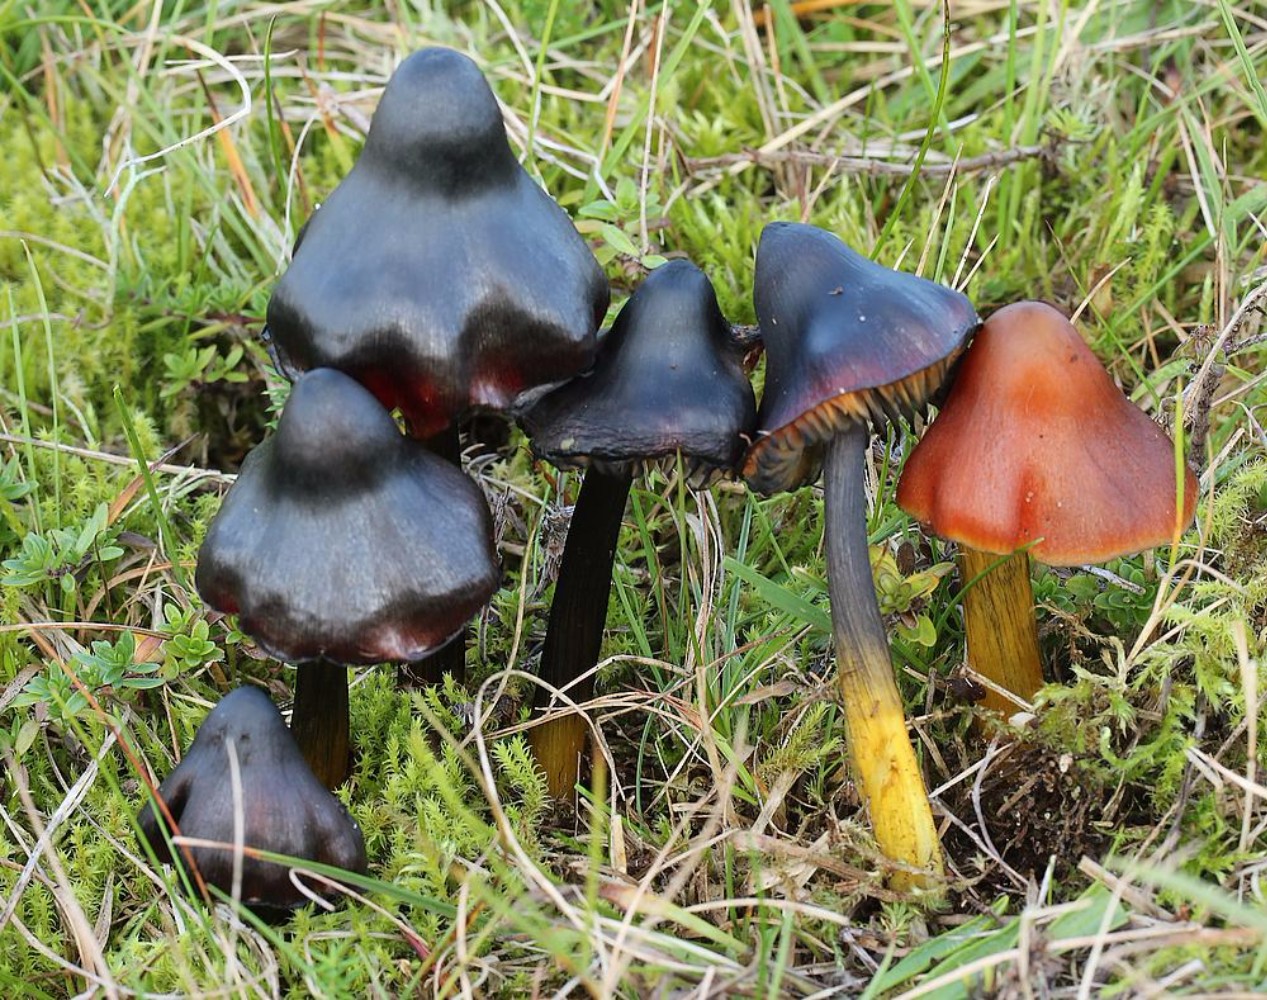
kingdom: Fungi
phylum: Basidiomycota
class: Agaricomycetes
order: Agaricales
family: Hygrophoraceae
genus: Hygrocybe
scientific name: Hygrocybe conica
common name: kegle-vokshat
